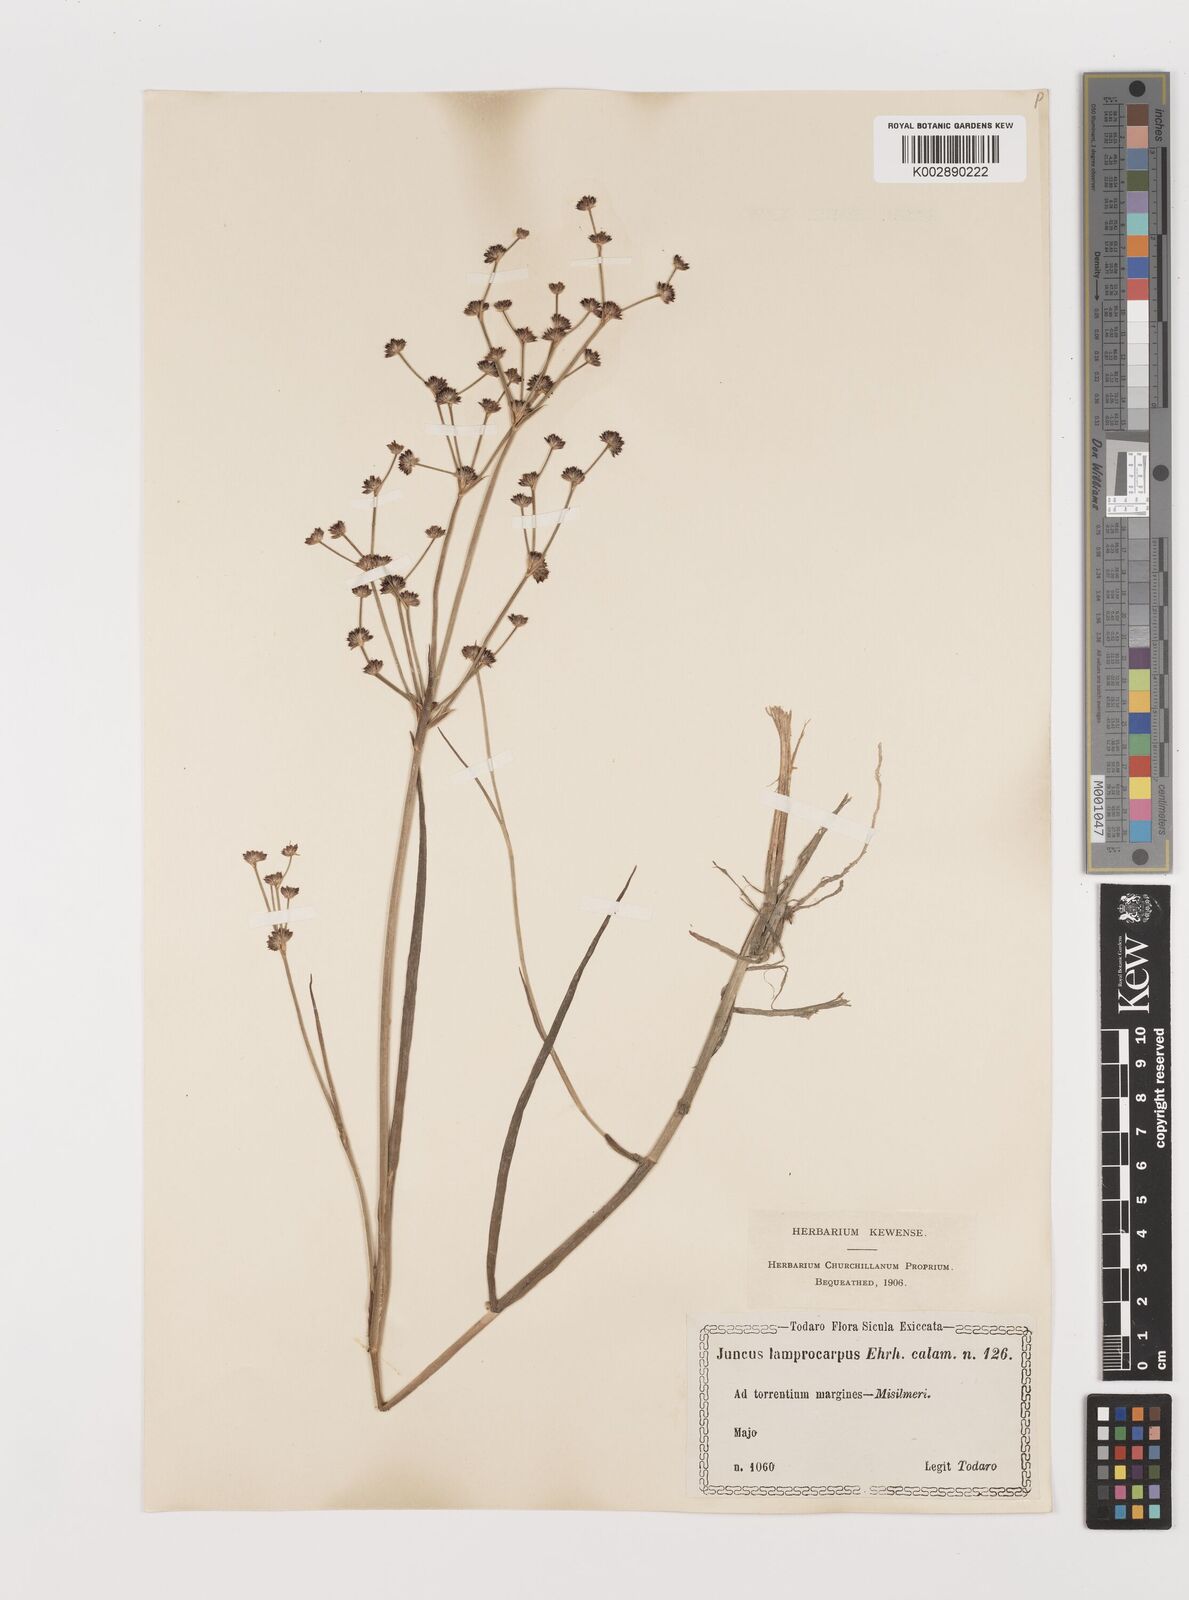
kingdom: Plantae
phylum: Tracheophyta
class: Liliopsida
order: Poales
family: Juncaceae
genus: Juncus
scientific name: Juncus articulatus
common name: Jointed rush
